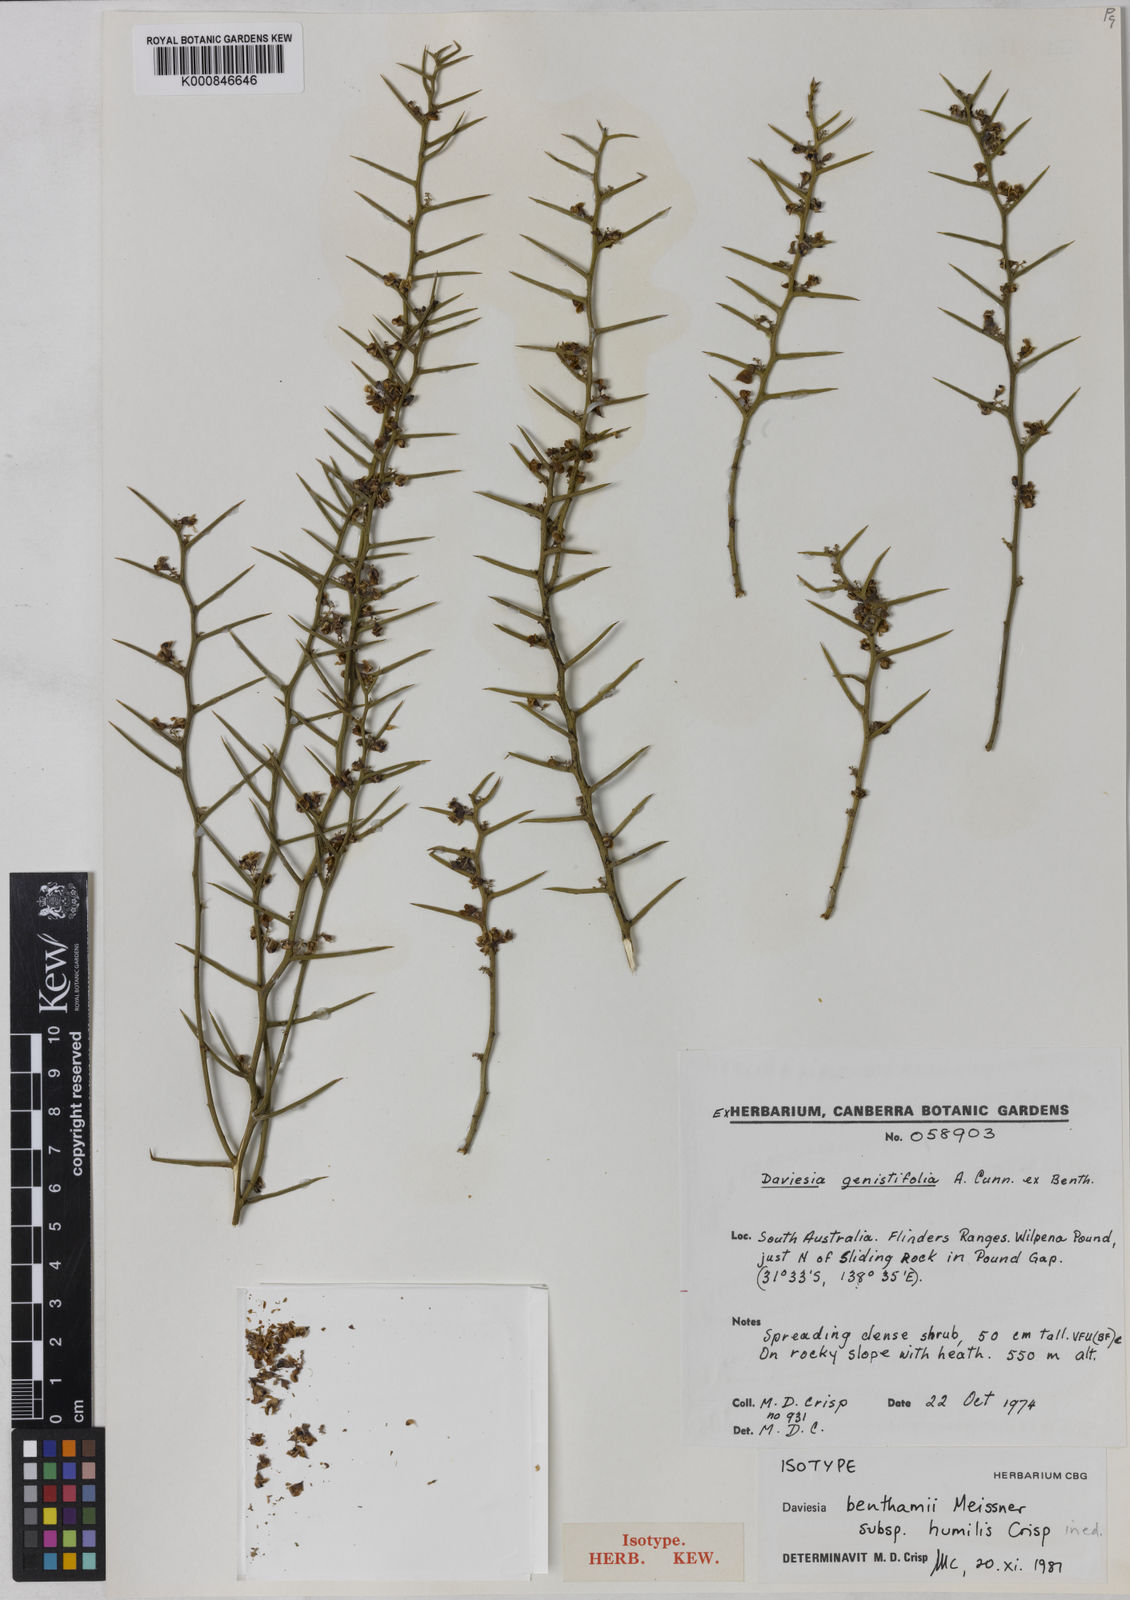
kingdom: Plantae
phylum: Tracheophyta
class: Magnoliopsida
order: Fabales
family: Fabaceae
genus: Daviesia
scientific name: Daviesia devito
